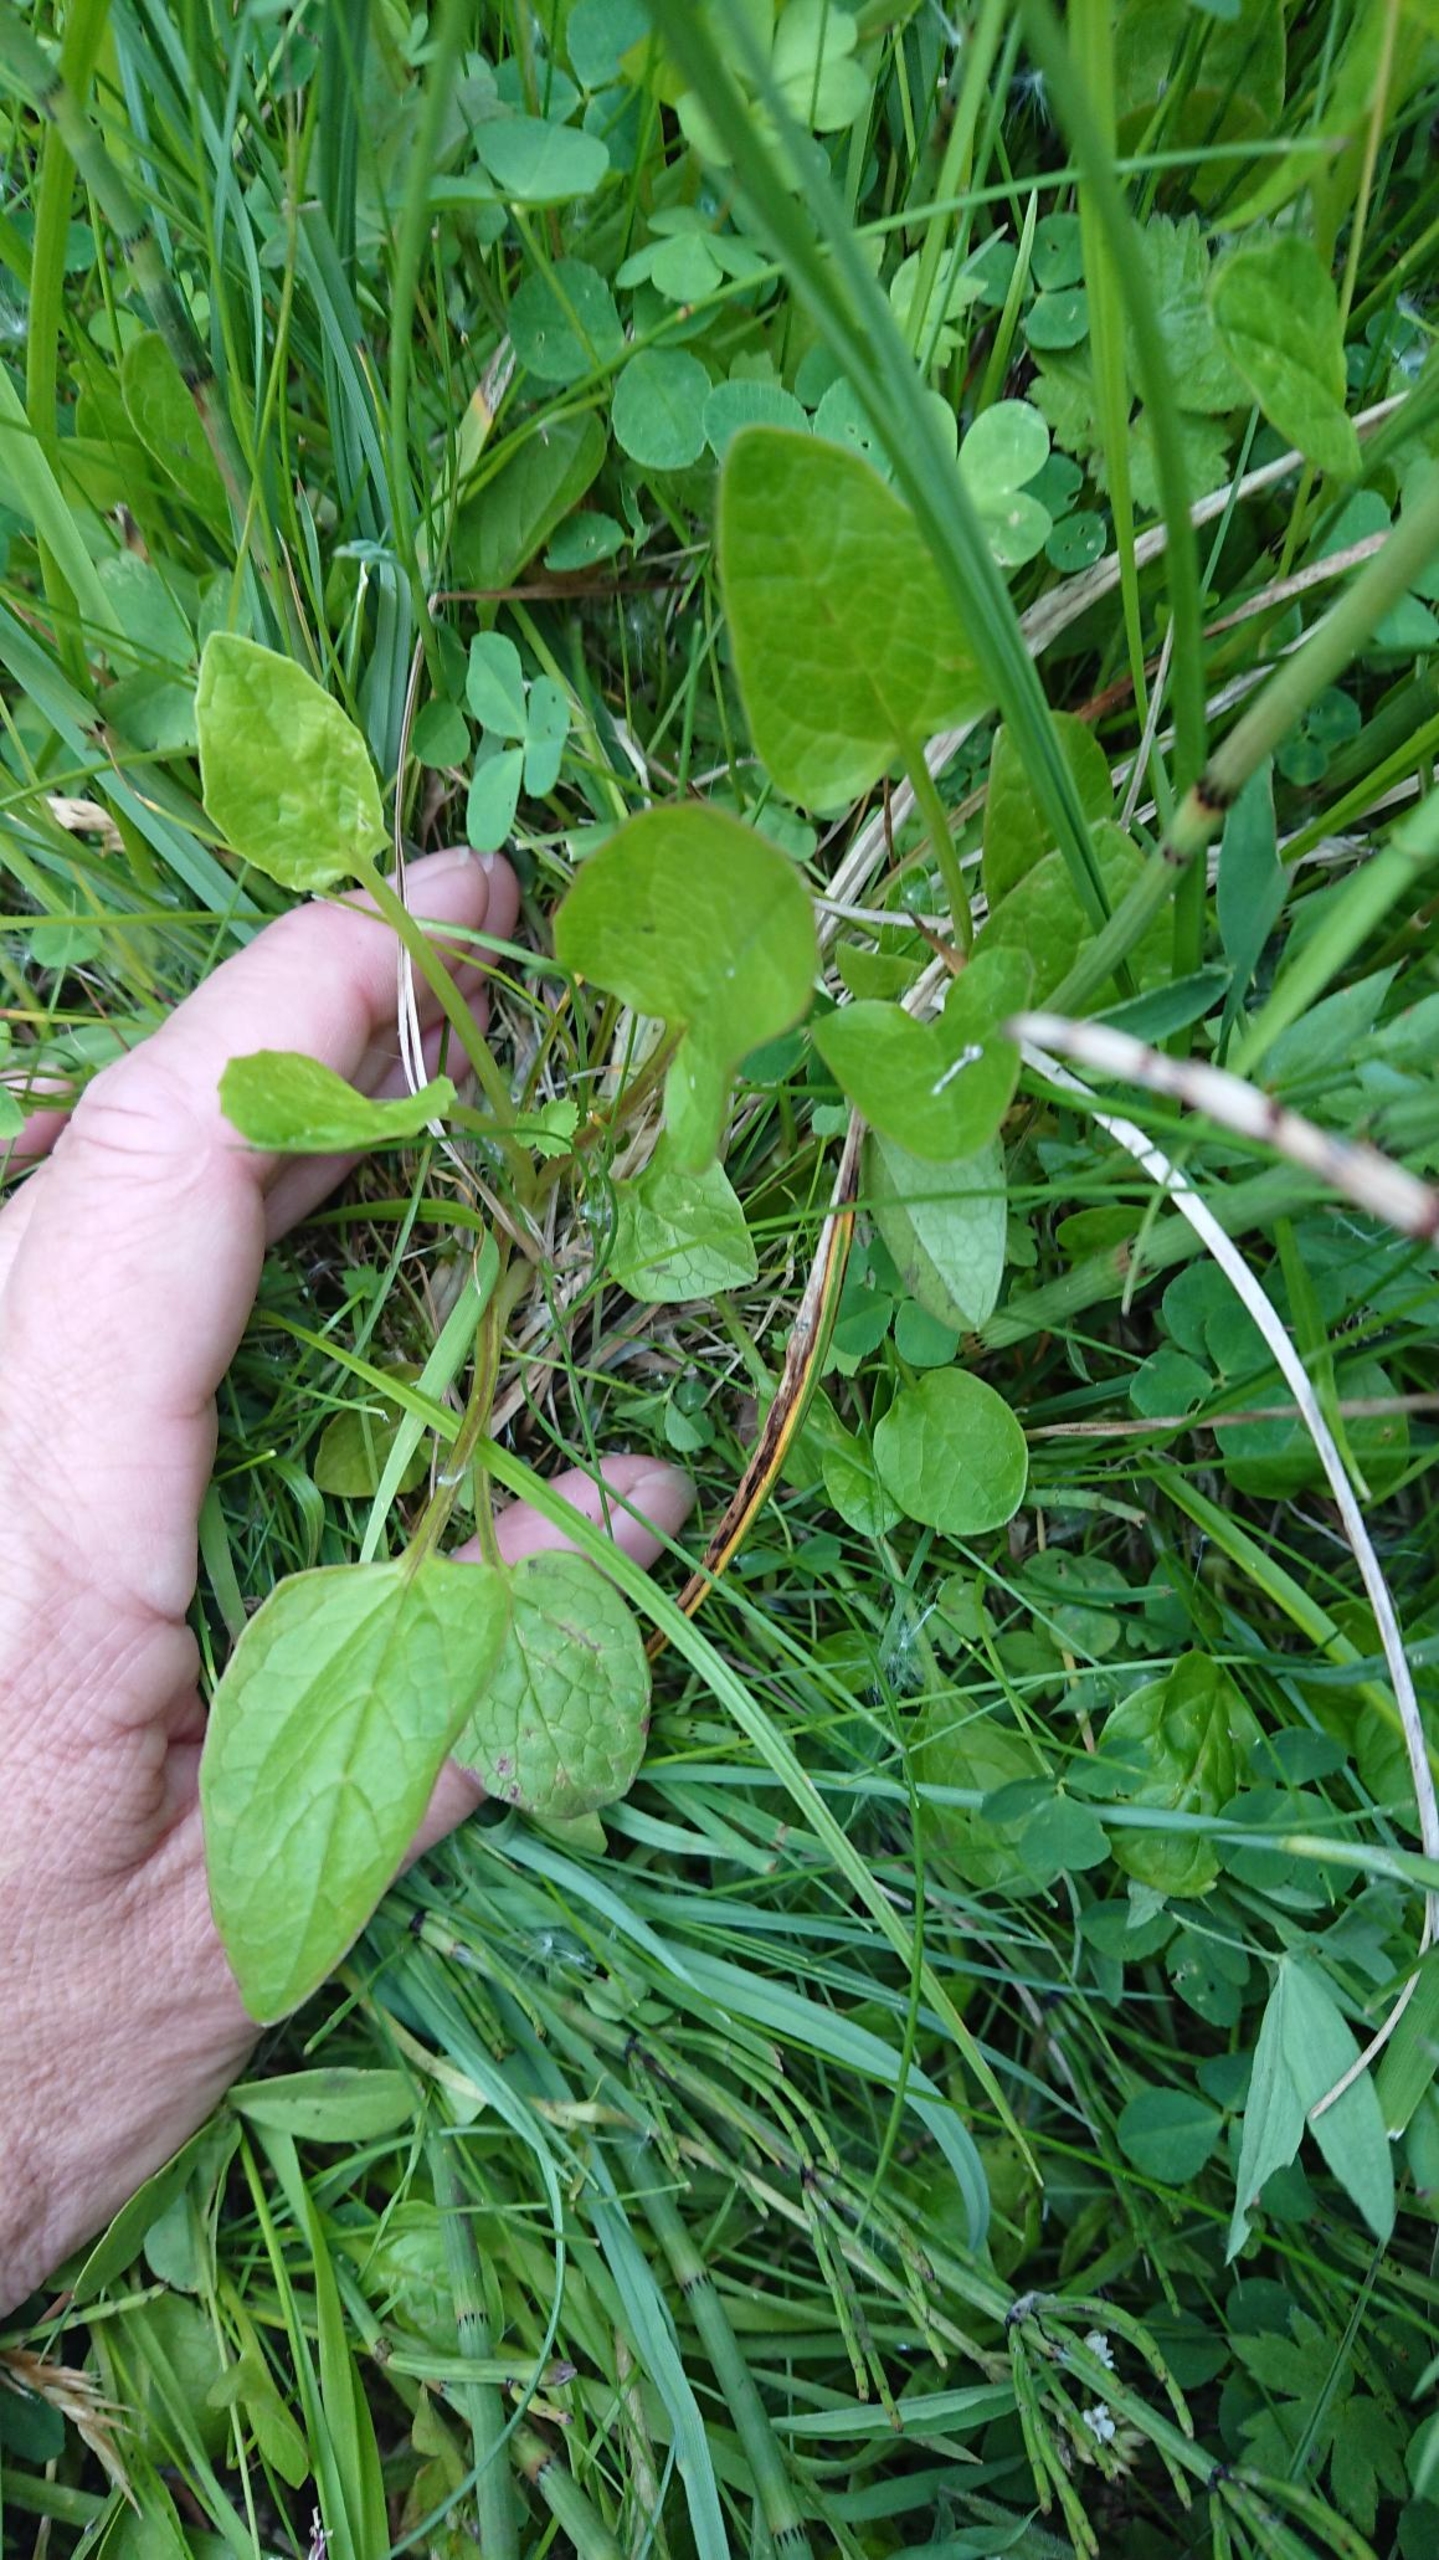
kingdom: Plantae
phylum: Tracheophyta
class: Magnoliopsida
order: Dipsacales
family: Caprifoliaceae
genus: Valeriana
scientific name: Valeriana dioica
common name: Tvebo baldrian
